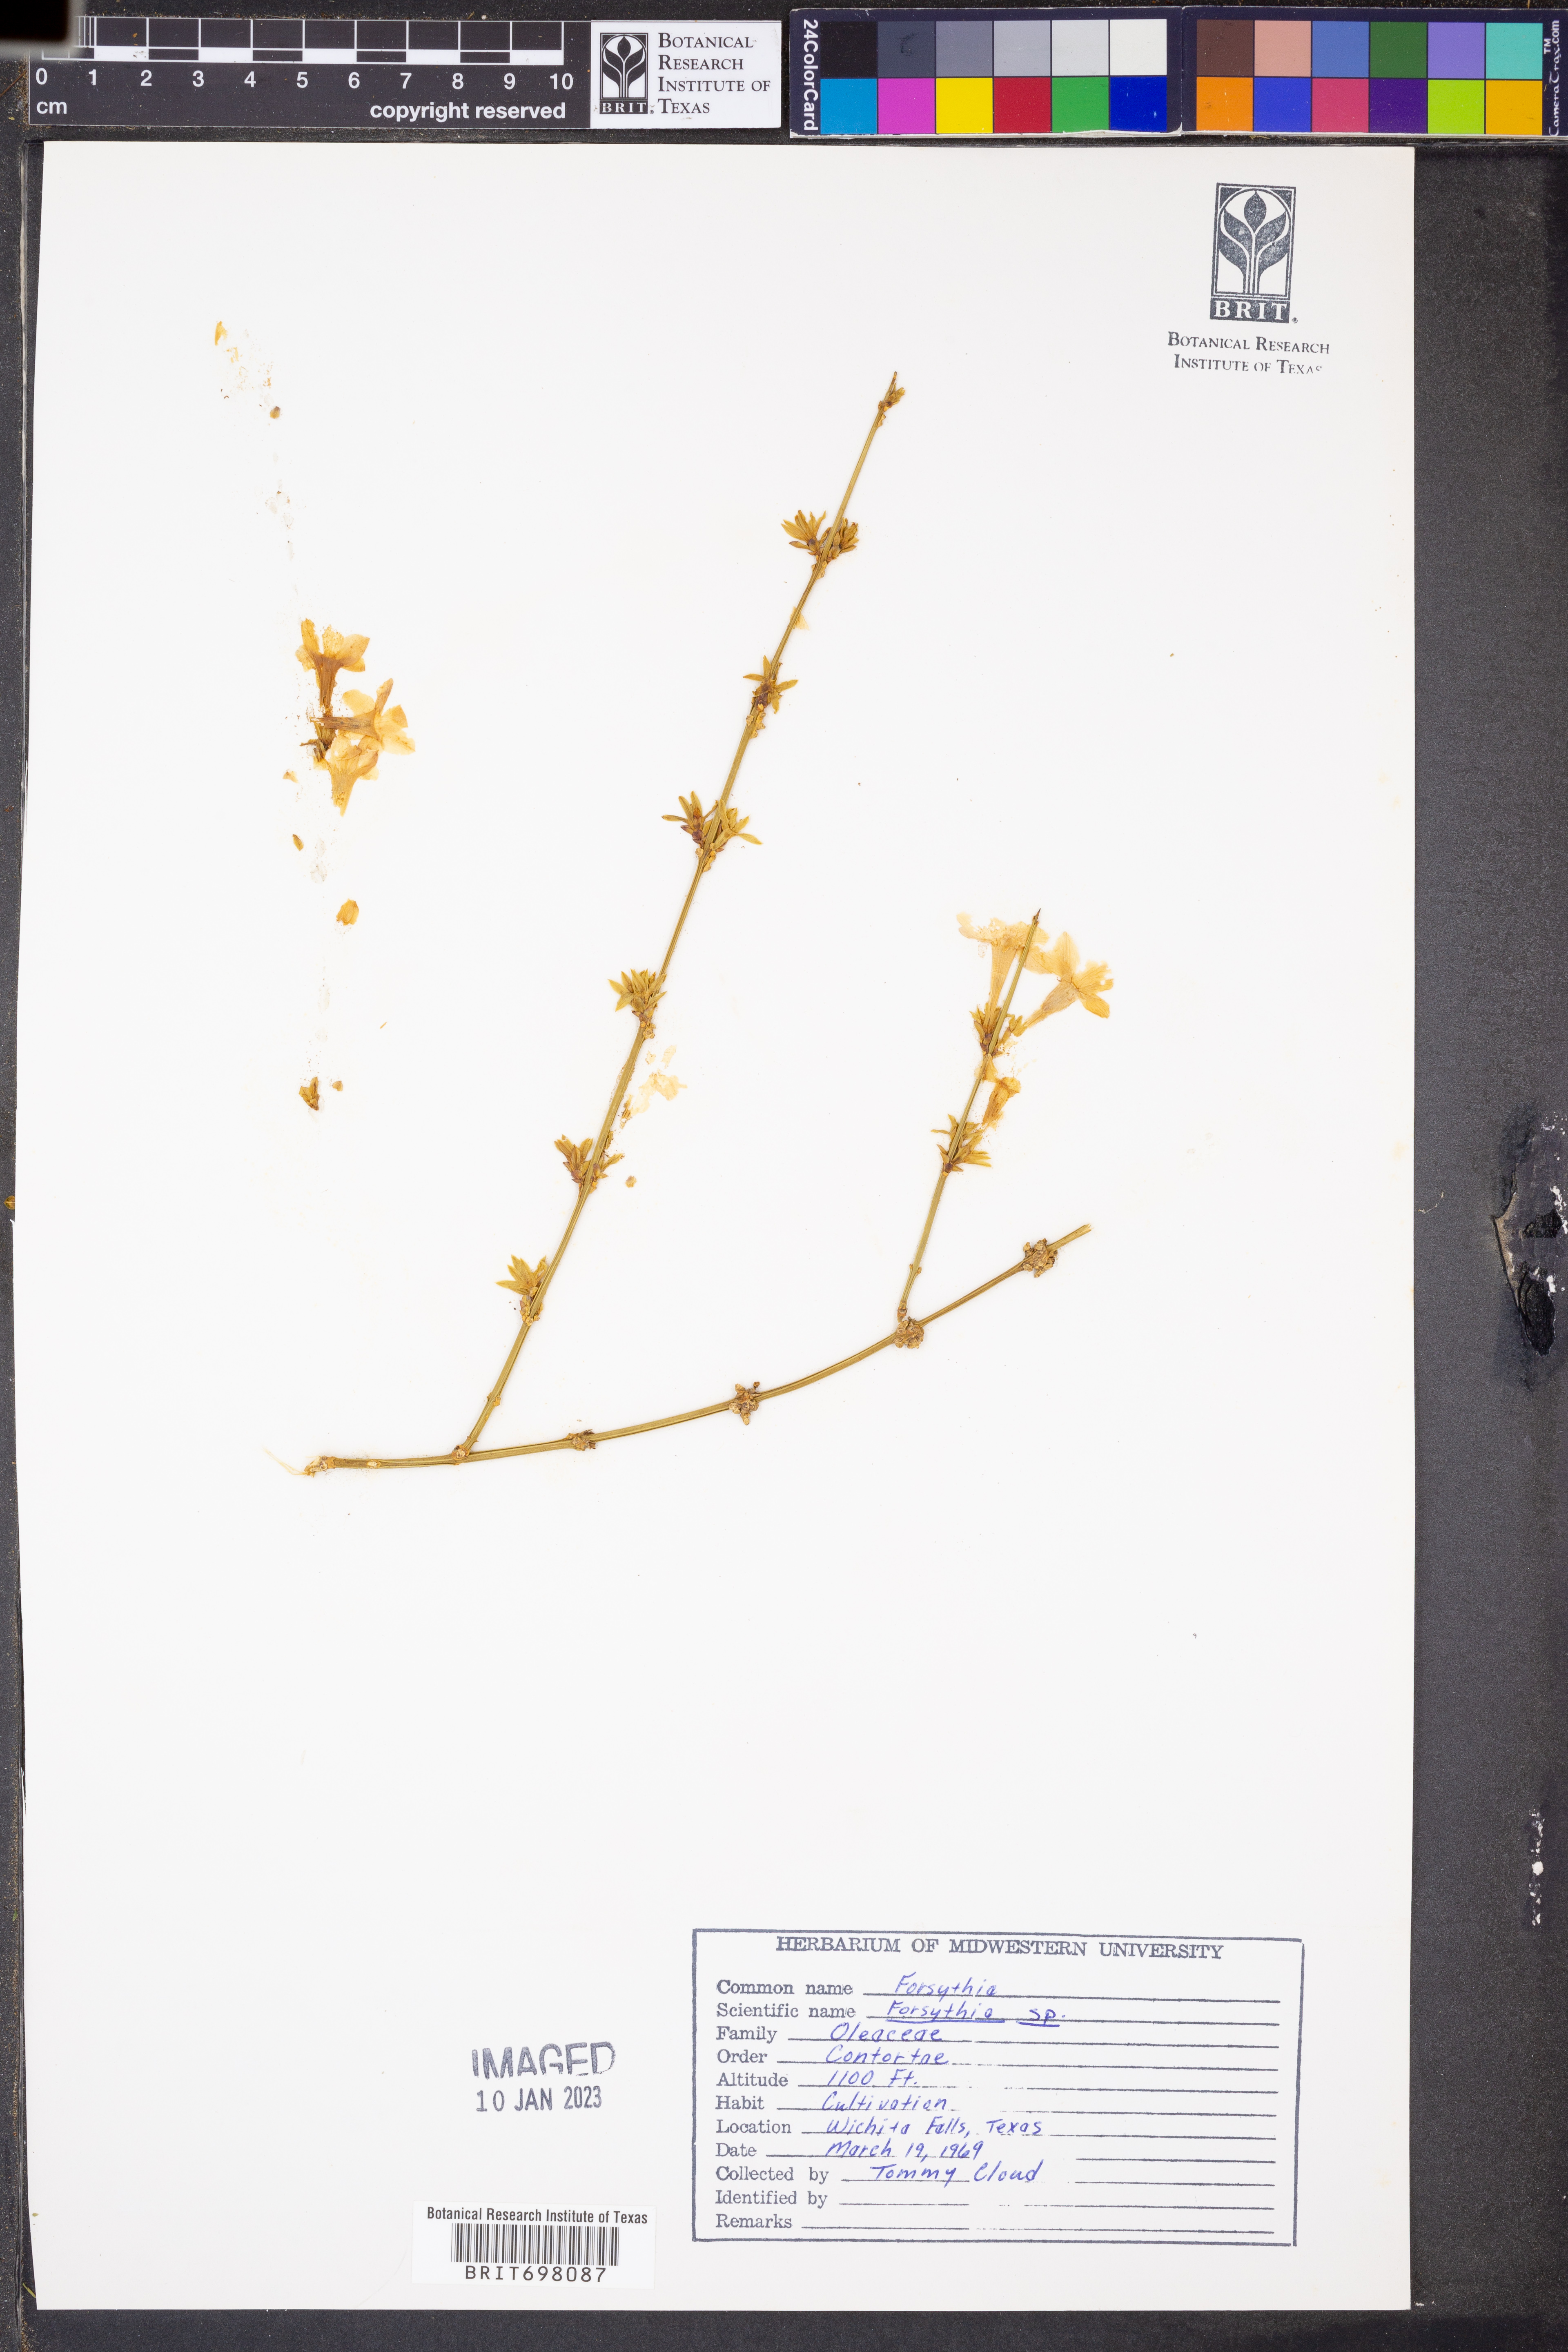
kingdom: Plantae
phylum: Tracheophyta
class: Magnoliopsida
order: Lamiales
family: Oleaceae
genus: Forsythia
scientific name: Forsythia
